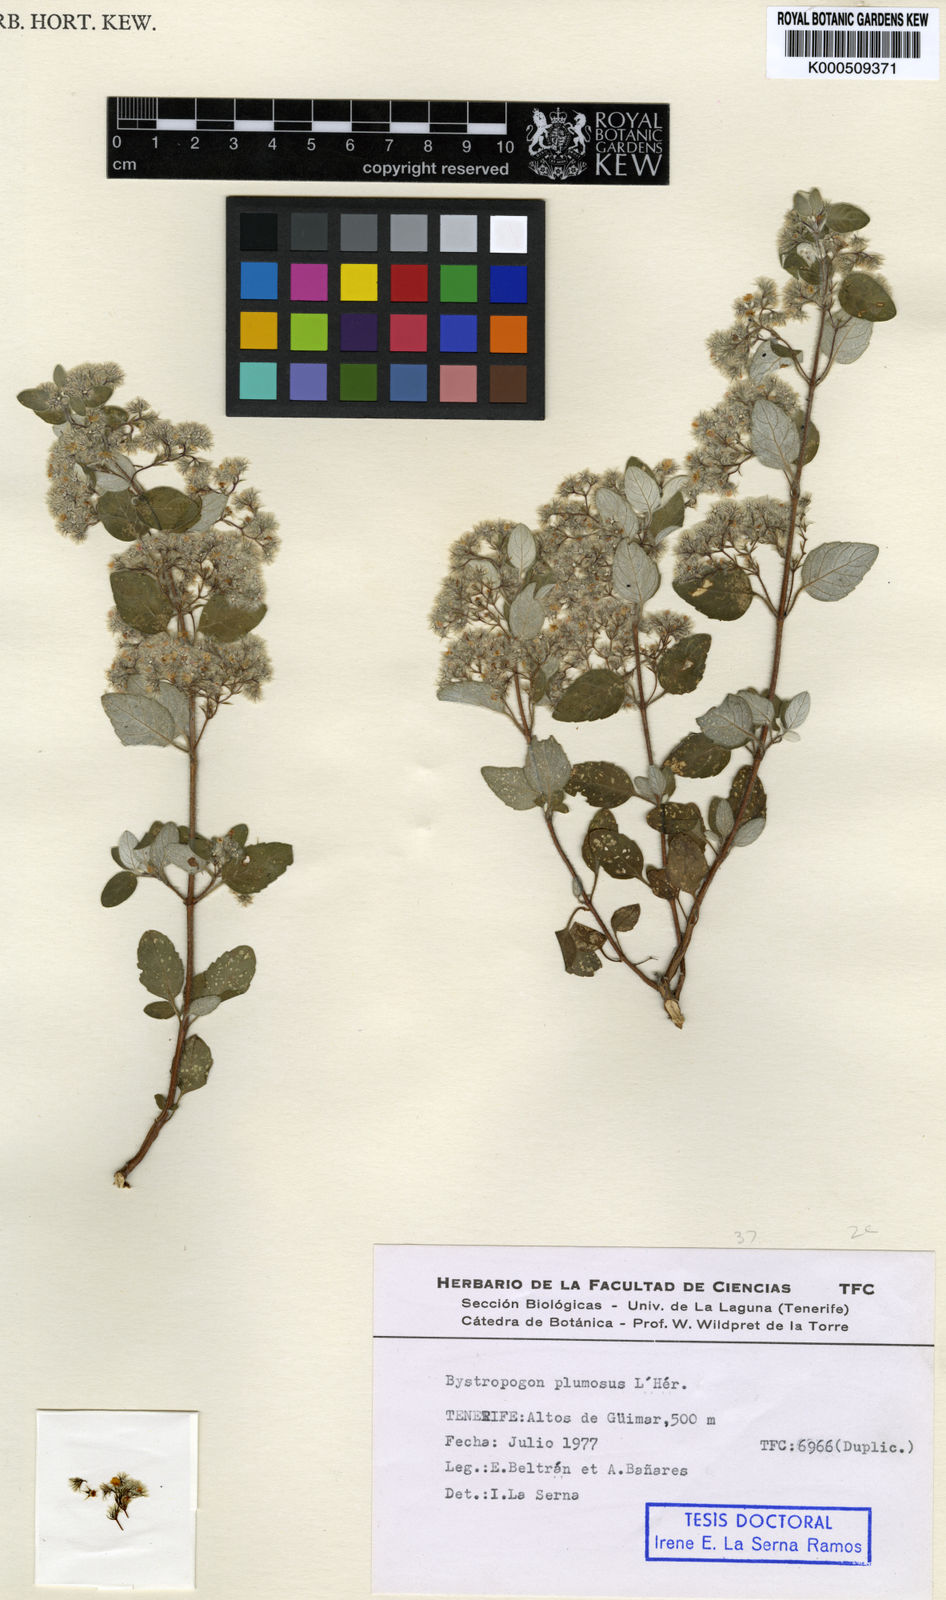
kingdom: Plantae
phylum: Tracheophyta
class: Magnoliopsida
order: Lamiales
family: Lamiaceae
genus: Bystropogon
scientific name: Bystropogon
